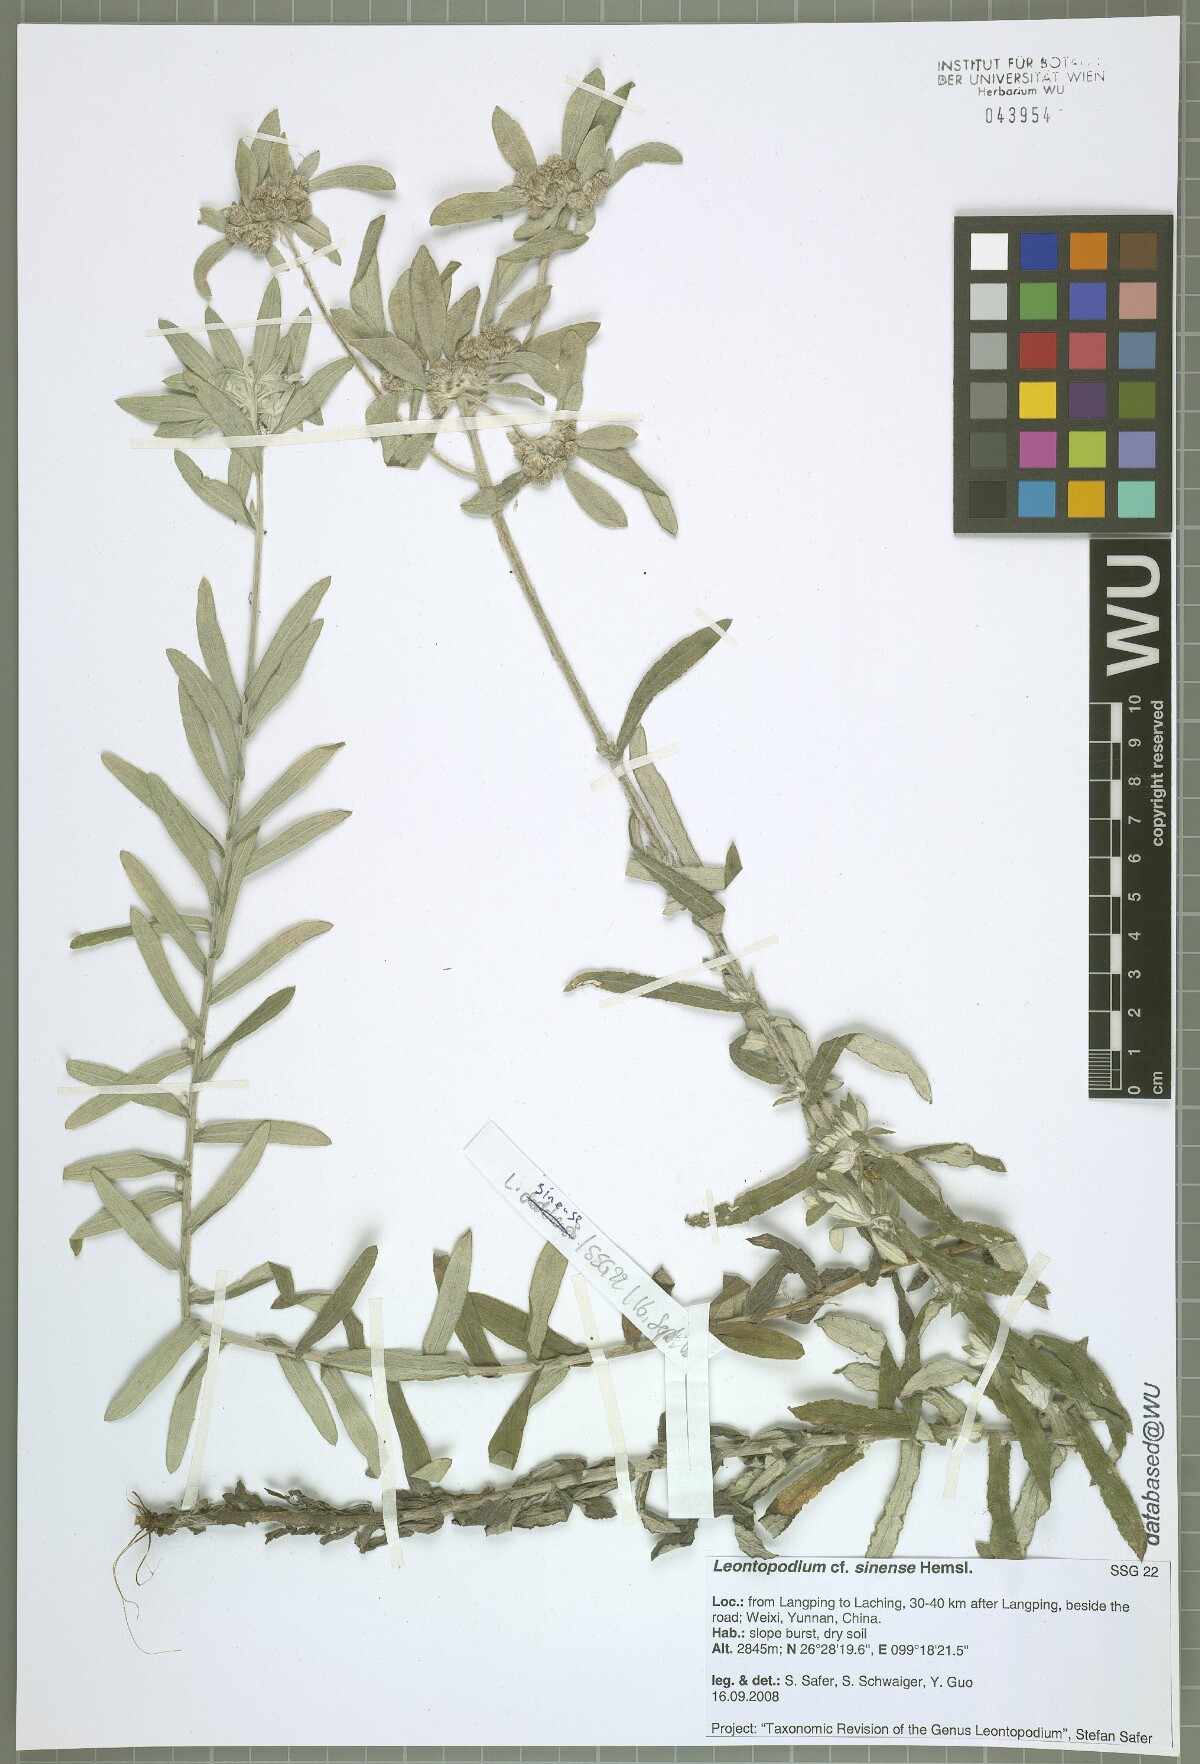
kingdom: Plantae
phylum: Tracheophyta
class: Magnoliopsida
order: Asterales
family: Asteraceae
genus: Leontopodium
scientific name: Leontopodium sinense
